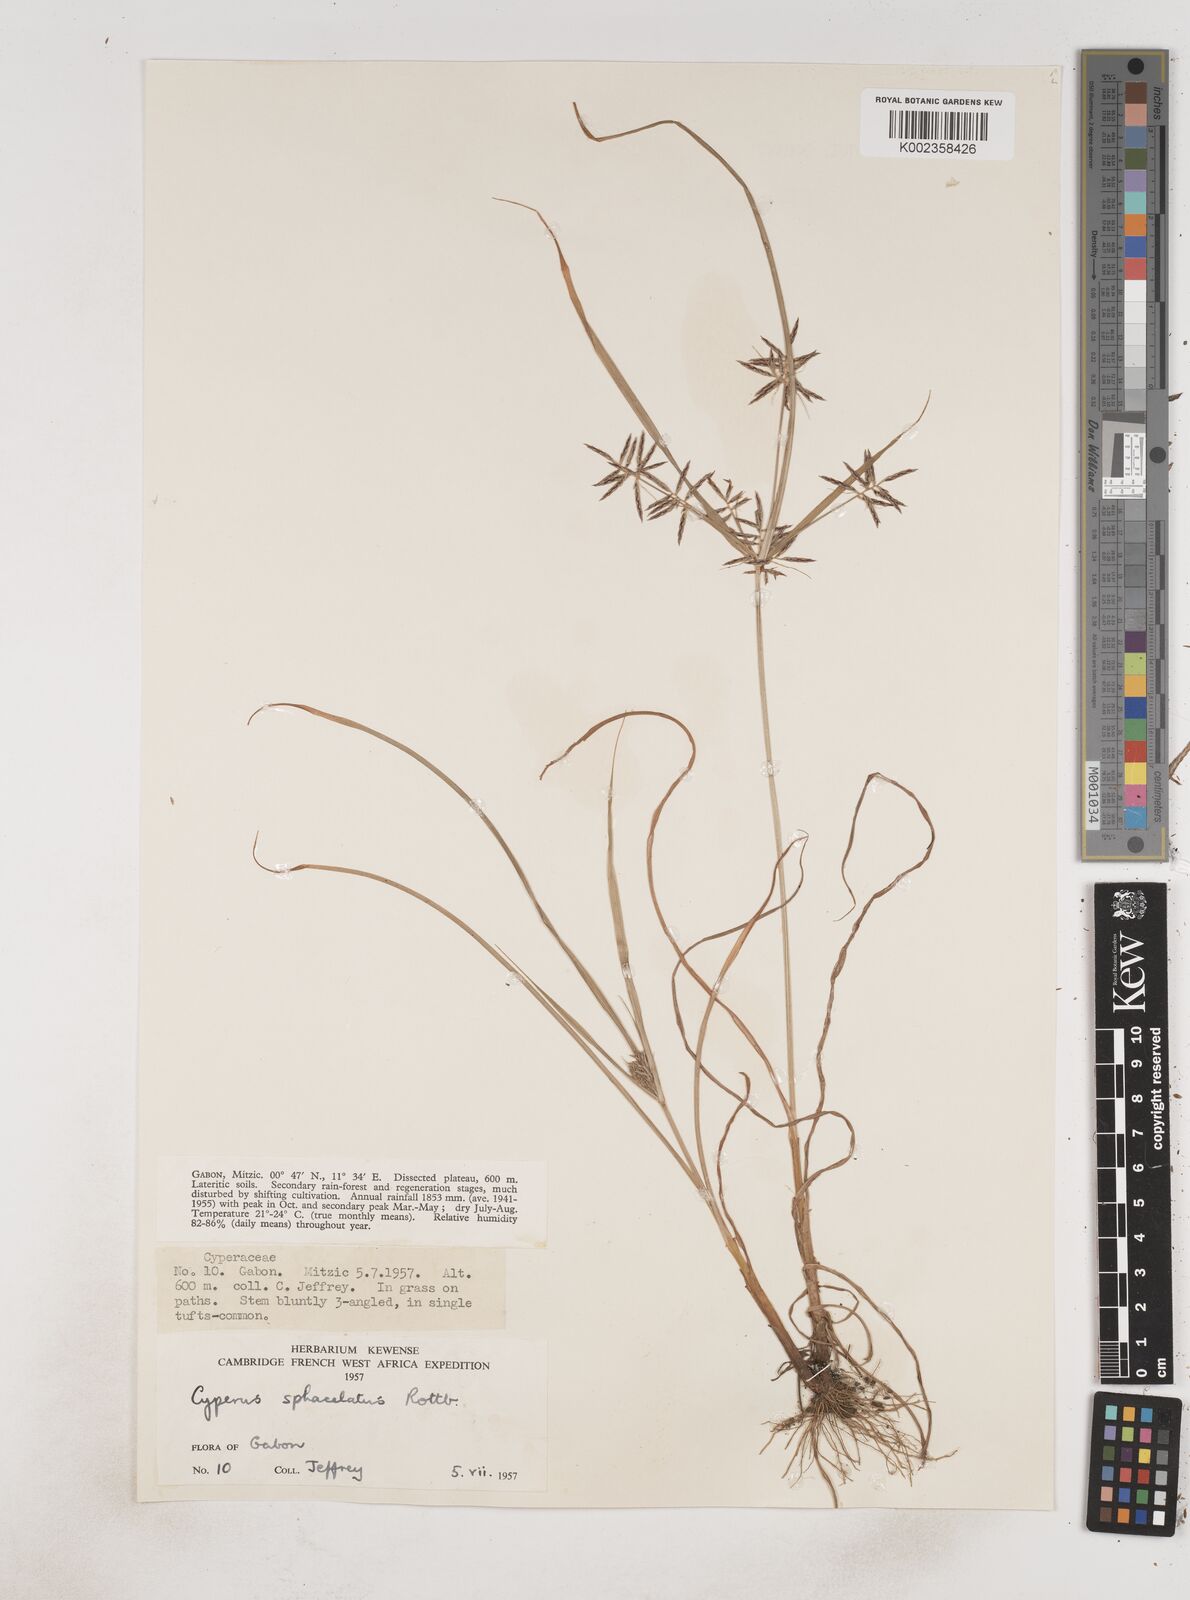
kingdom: Plantae
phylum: Tracheophyta
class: Liliopsida
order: Poales
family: Cyperaceae
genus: Cyperus
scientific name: Cyperus sphacelatus
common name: Roadside flatsedge
